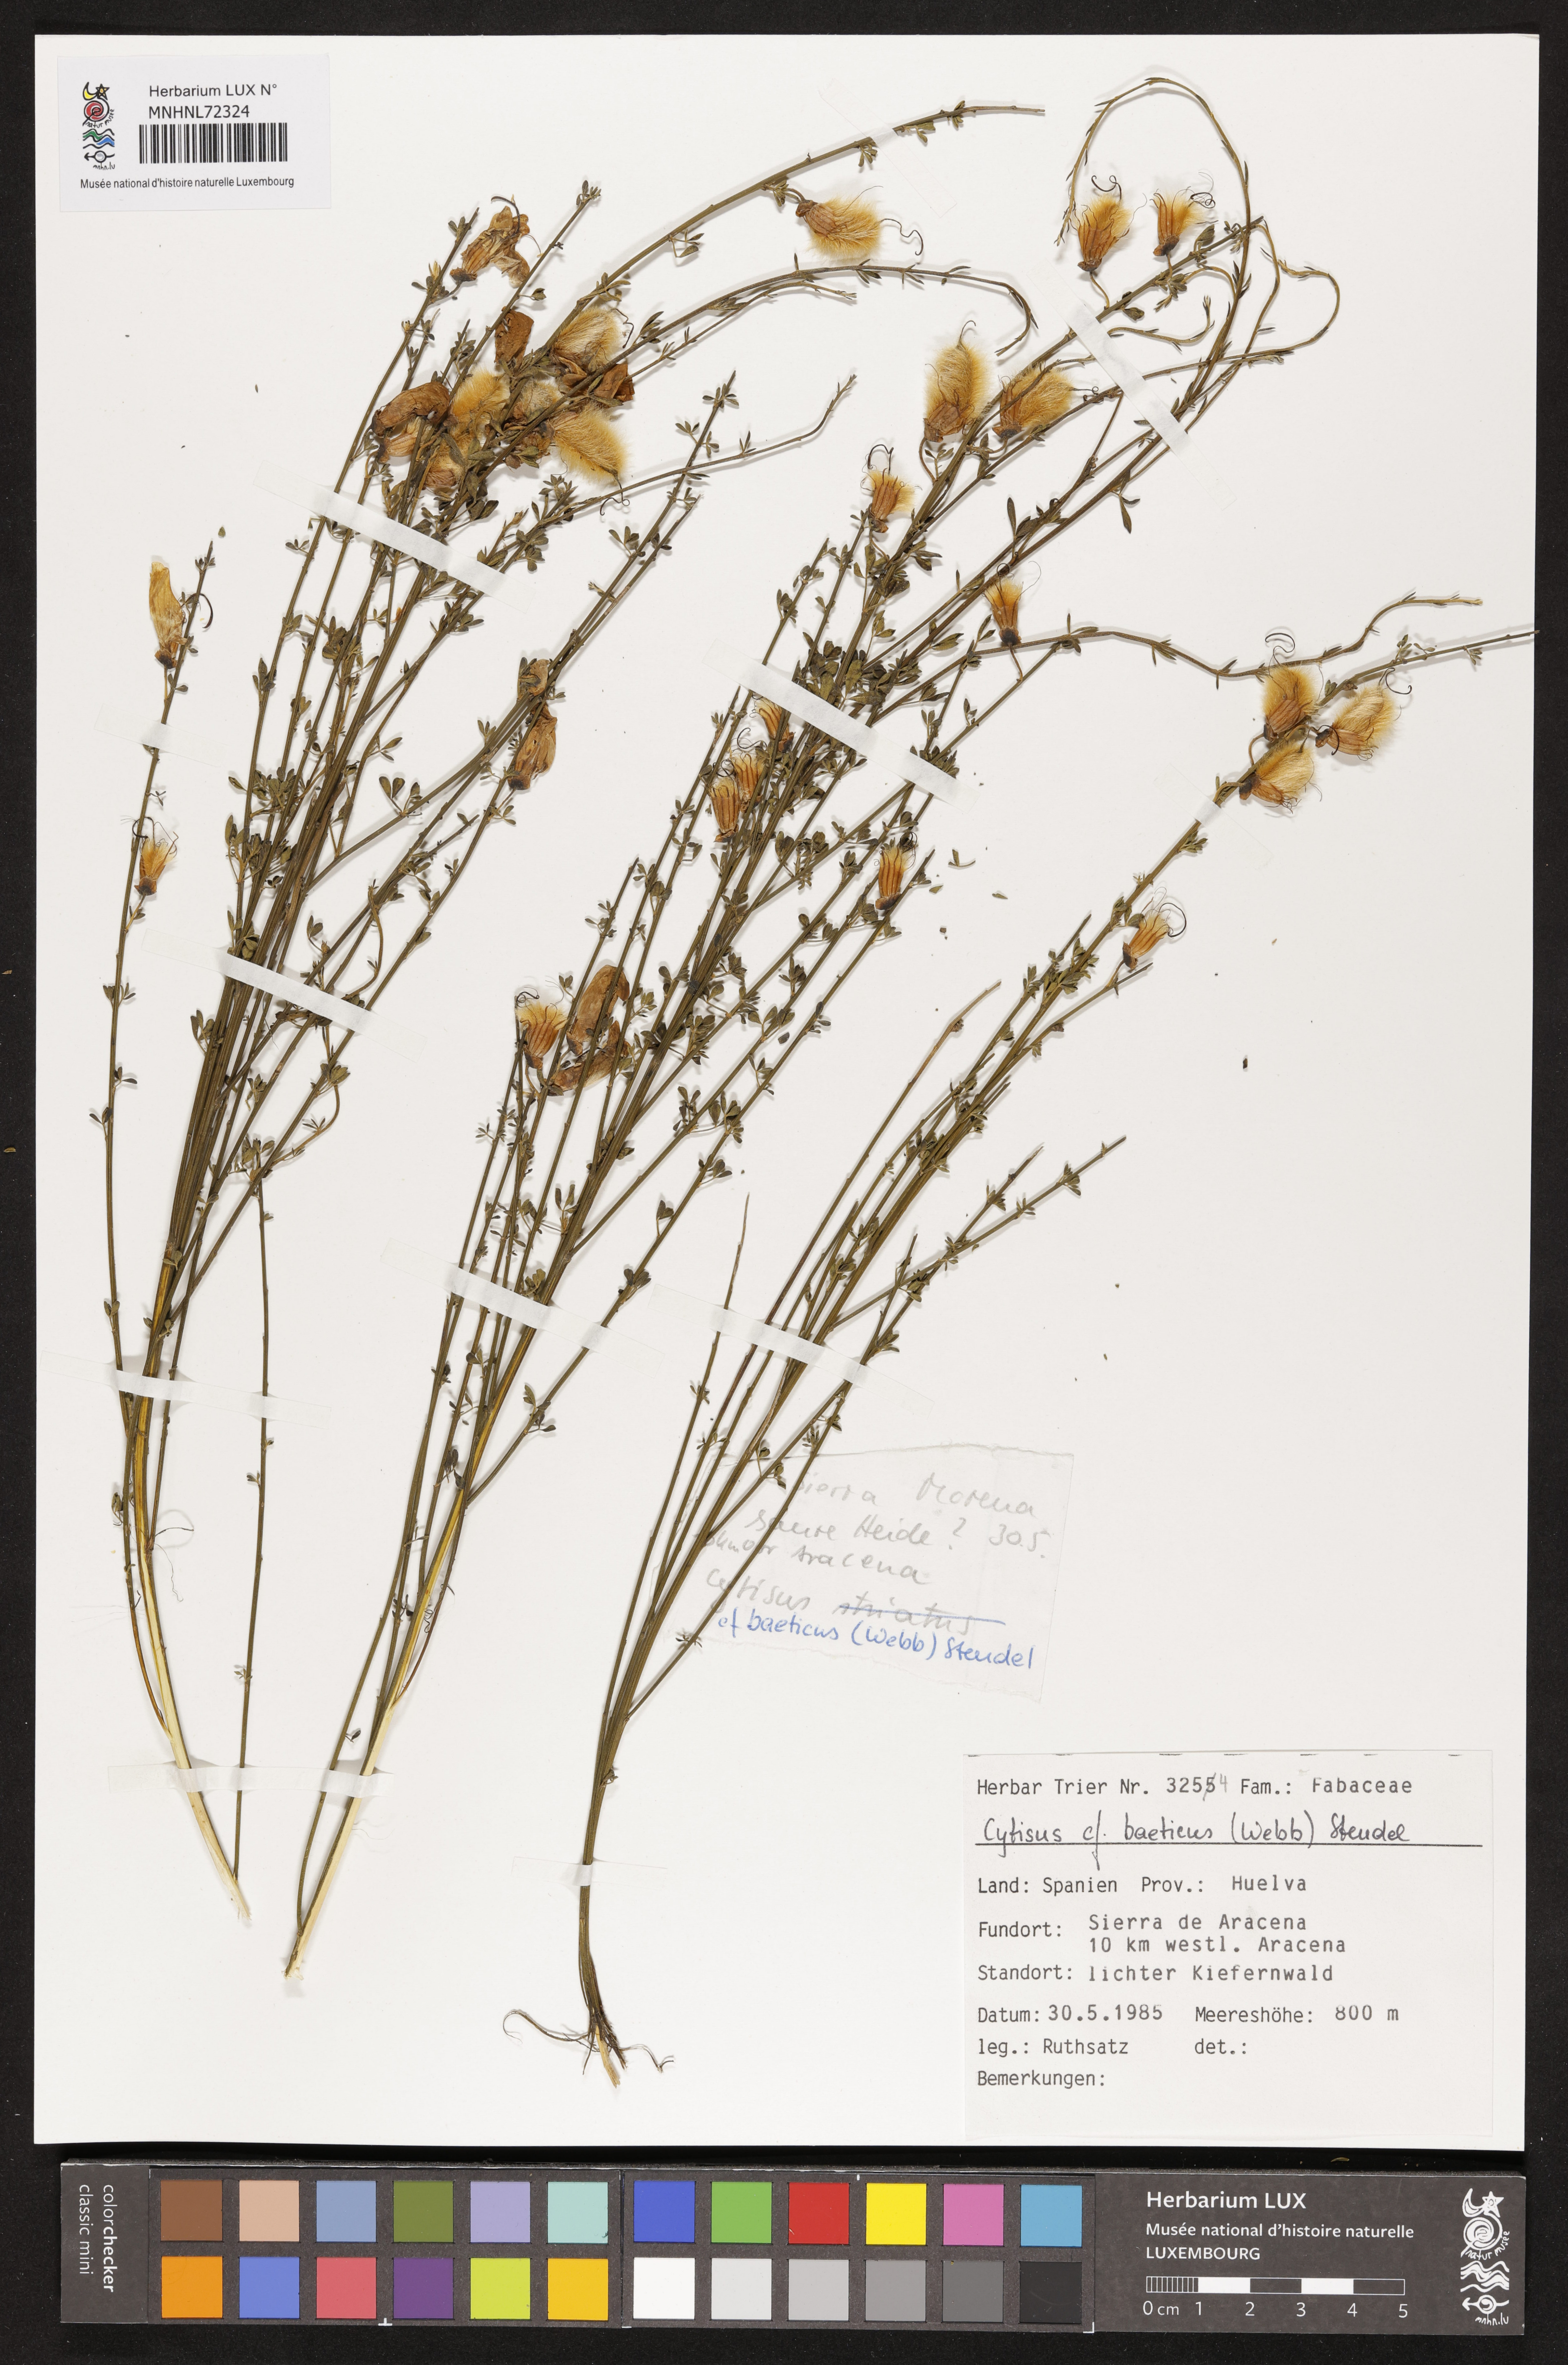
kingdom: Plantae
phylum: Tracheophyta
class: Magnoliopsida
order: Fabales
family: Fabaceae
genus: Cytisus
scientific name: Cytisus arboreus
